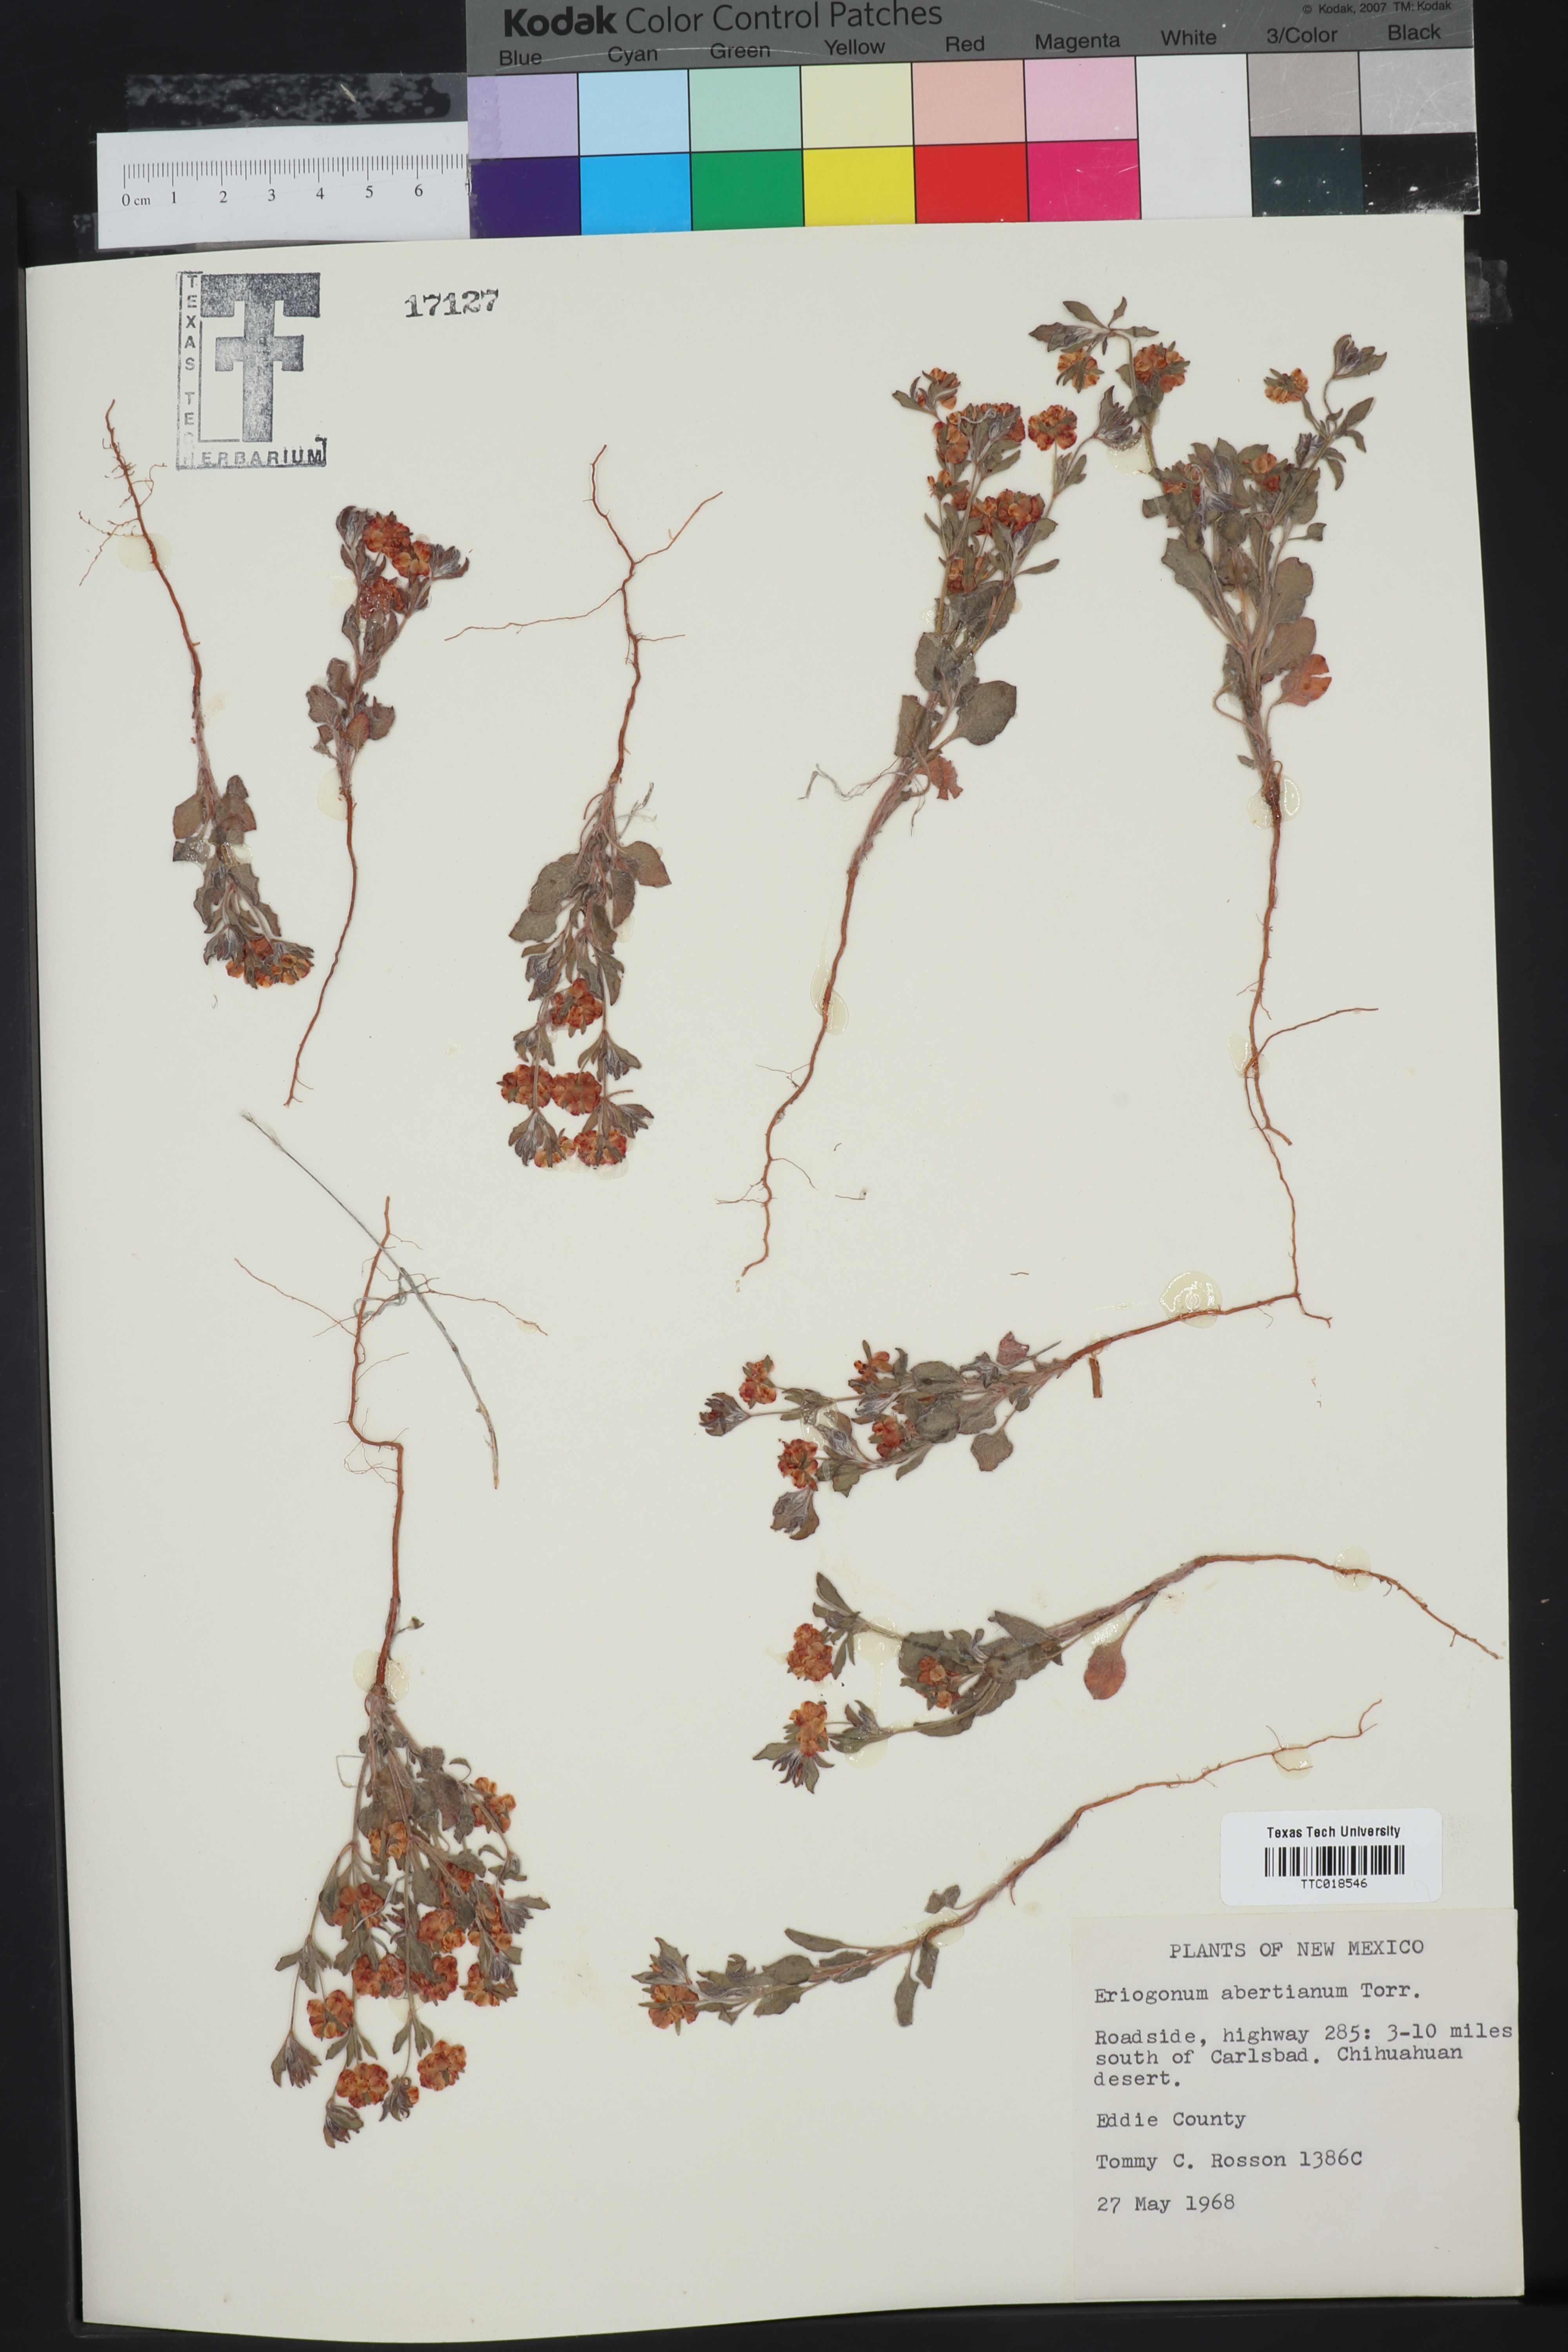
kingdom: Plantae
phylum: Tracheophyta
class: Magnoliopsida
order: Caryophyllales
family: Polygonaceae
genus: Eriogonum
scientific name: Eriogonum abertianum
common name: Abert's wild buckwheat
